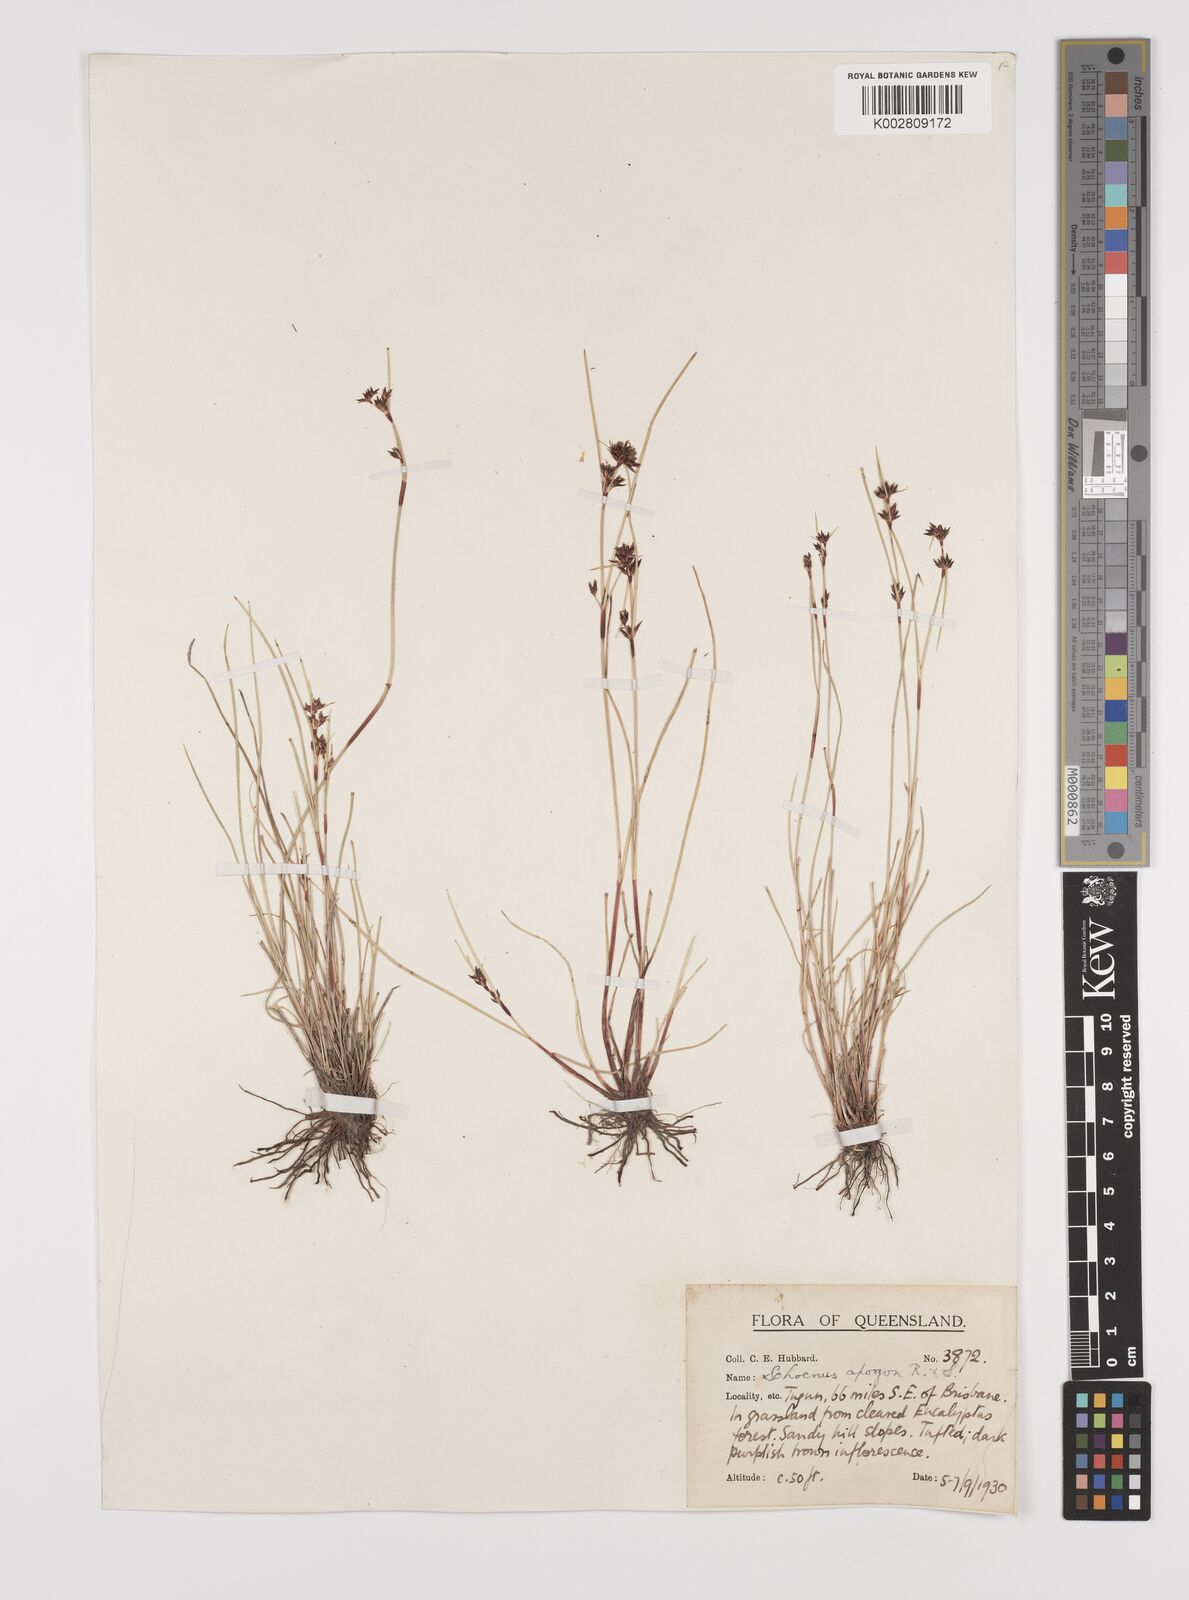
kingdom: Plantae
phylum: Tracheophyta
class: Liliopsida
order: Poales
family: Cyperaceae
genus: Schoenus
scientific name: Schoenus apogon
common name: Smooth bogrush
